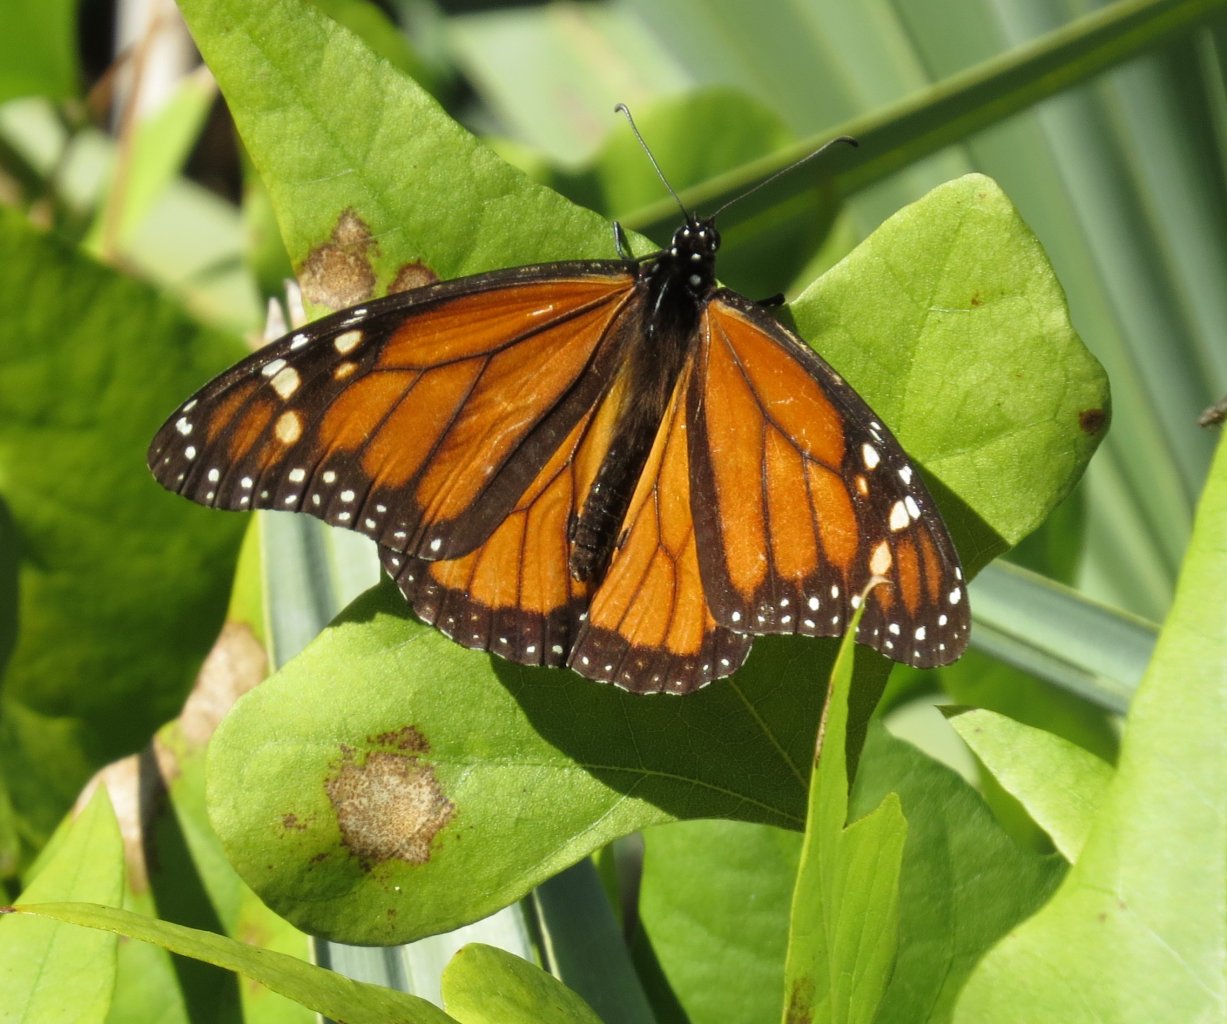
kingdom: Animalia
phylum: Arthropoda
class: Insecta
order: Lepidoptera
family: Nymphalidae
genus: Danaus
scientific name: Danaus plexippus
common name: Monarch
